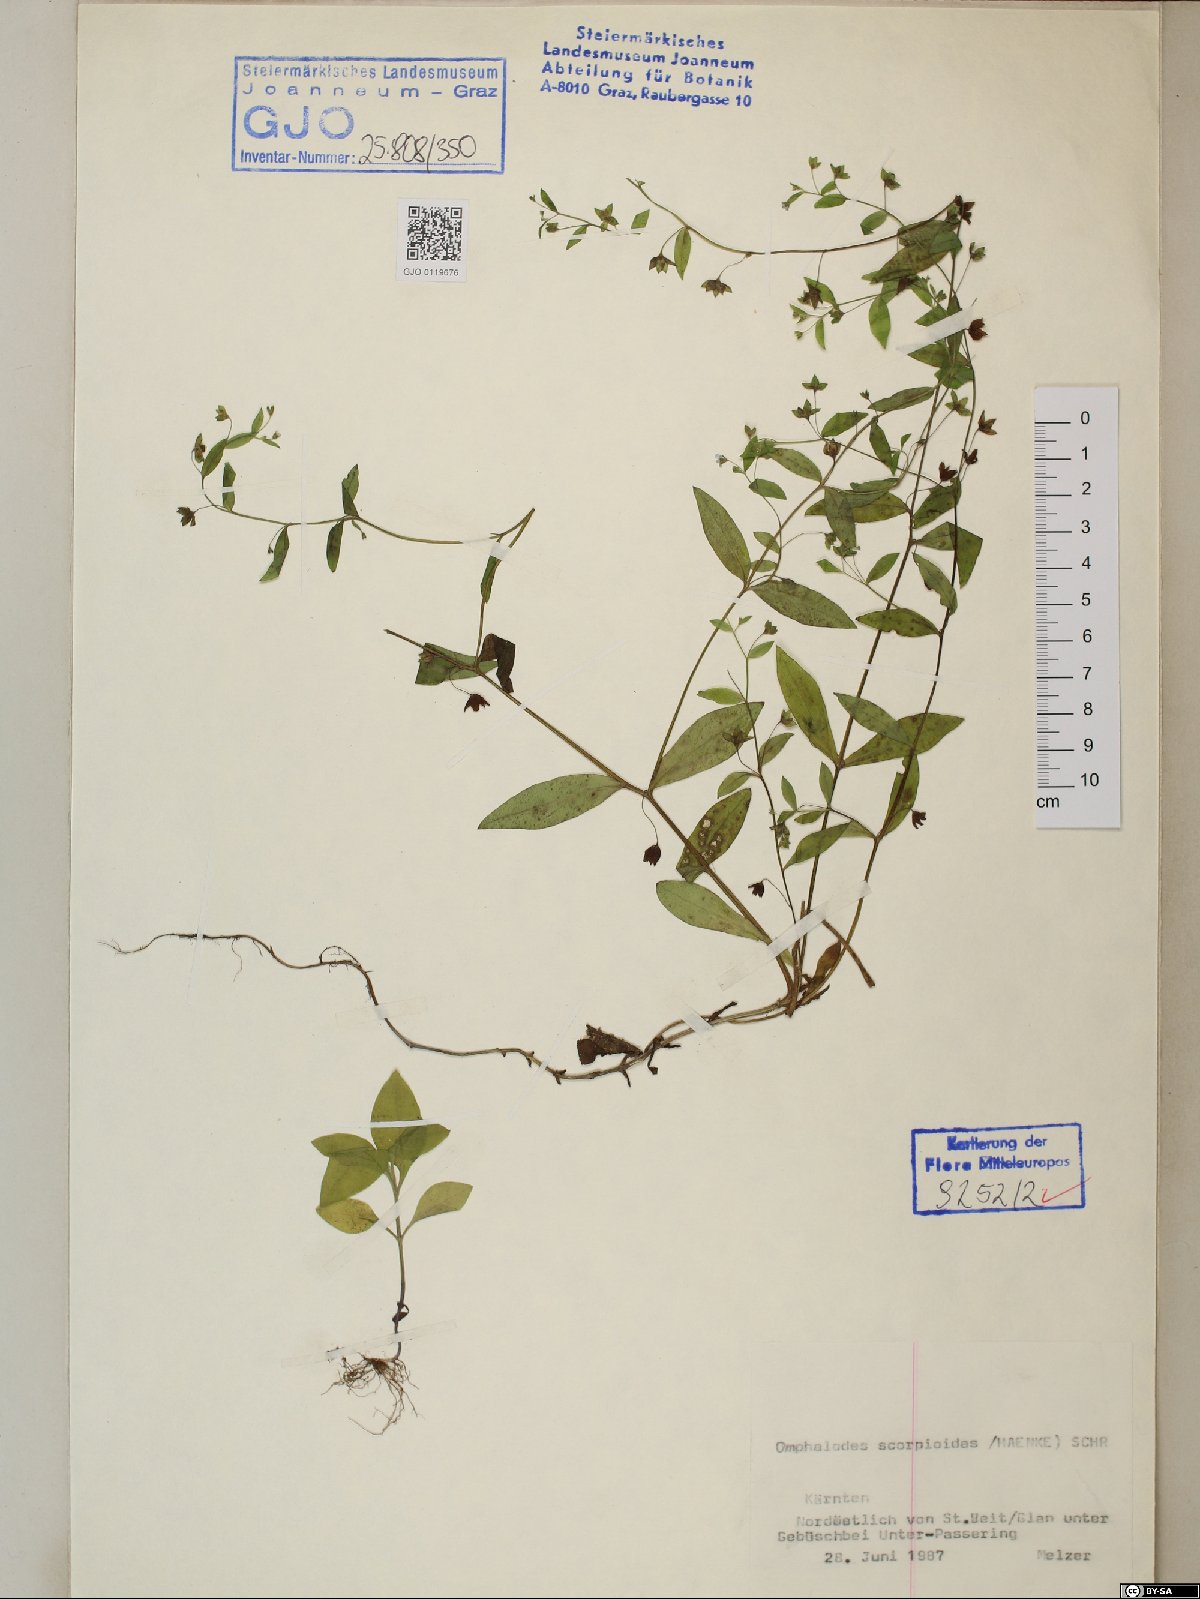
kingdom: Plantae
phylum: Tracheophyta
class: Magnoliopsida
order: Boraginales
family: Boraginaceae
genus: Memoremea
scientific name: Memoremea scorpioides
